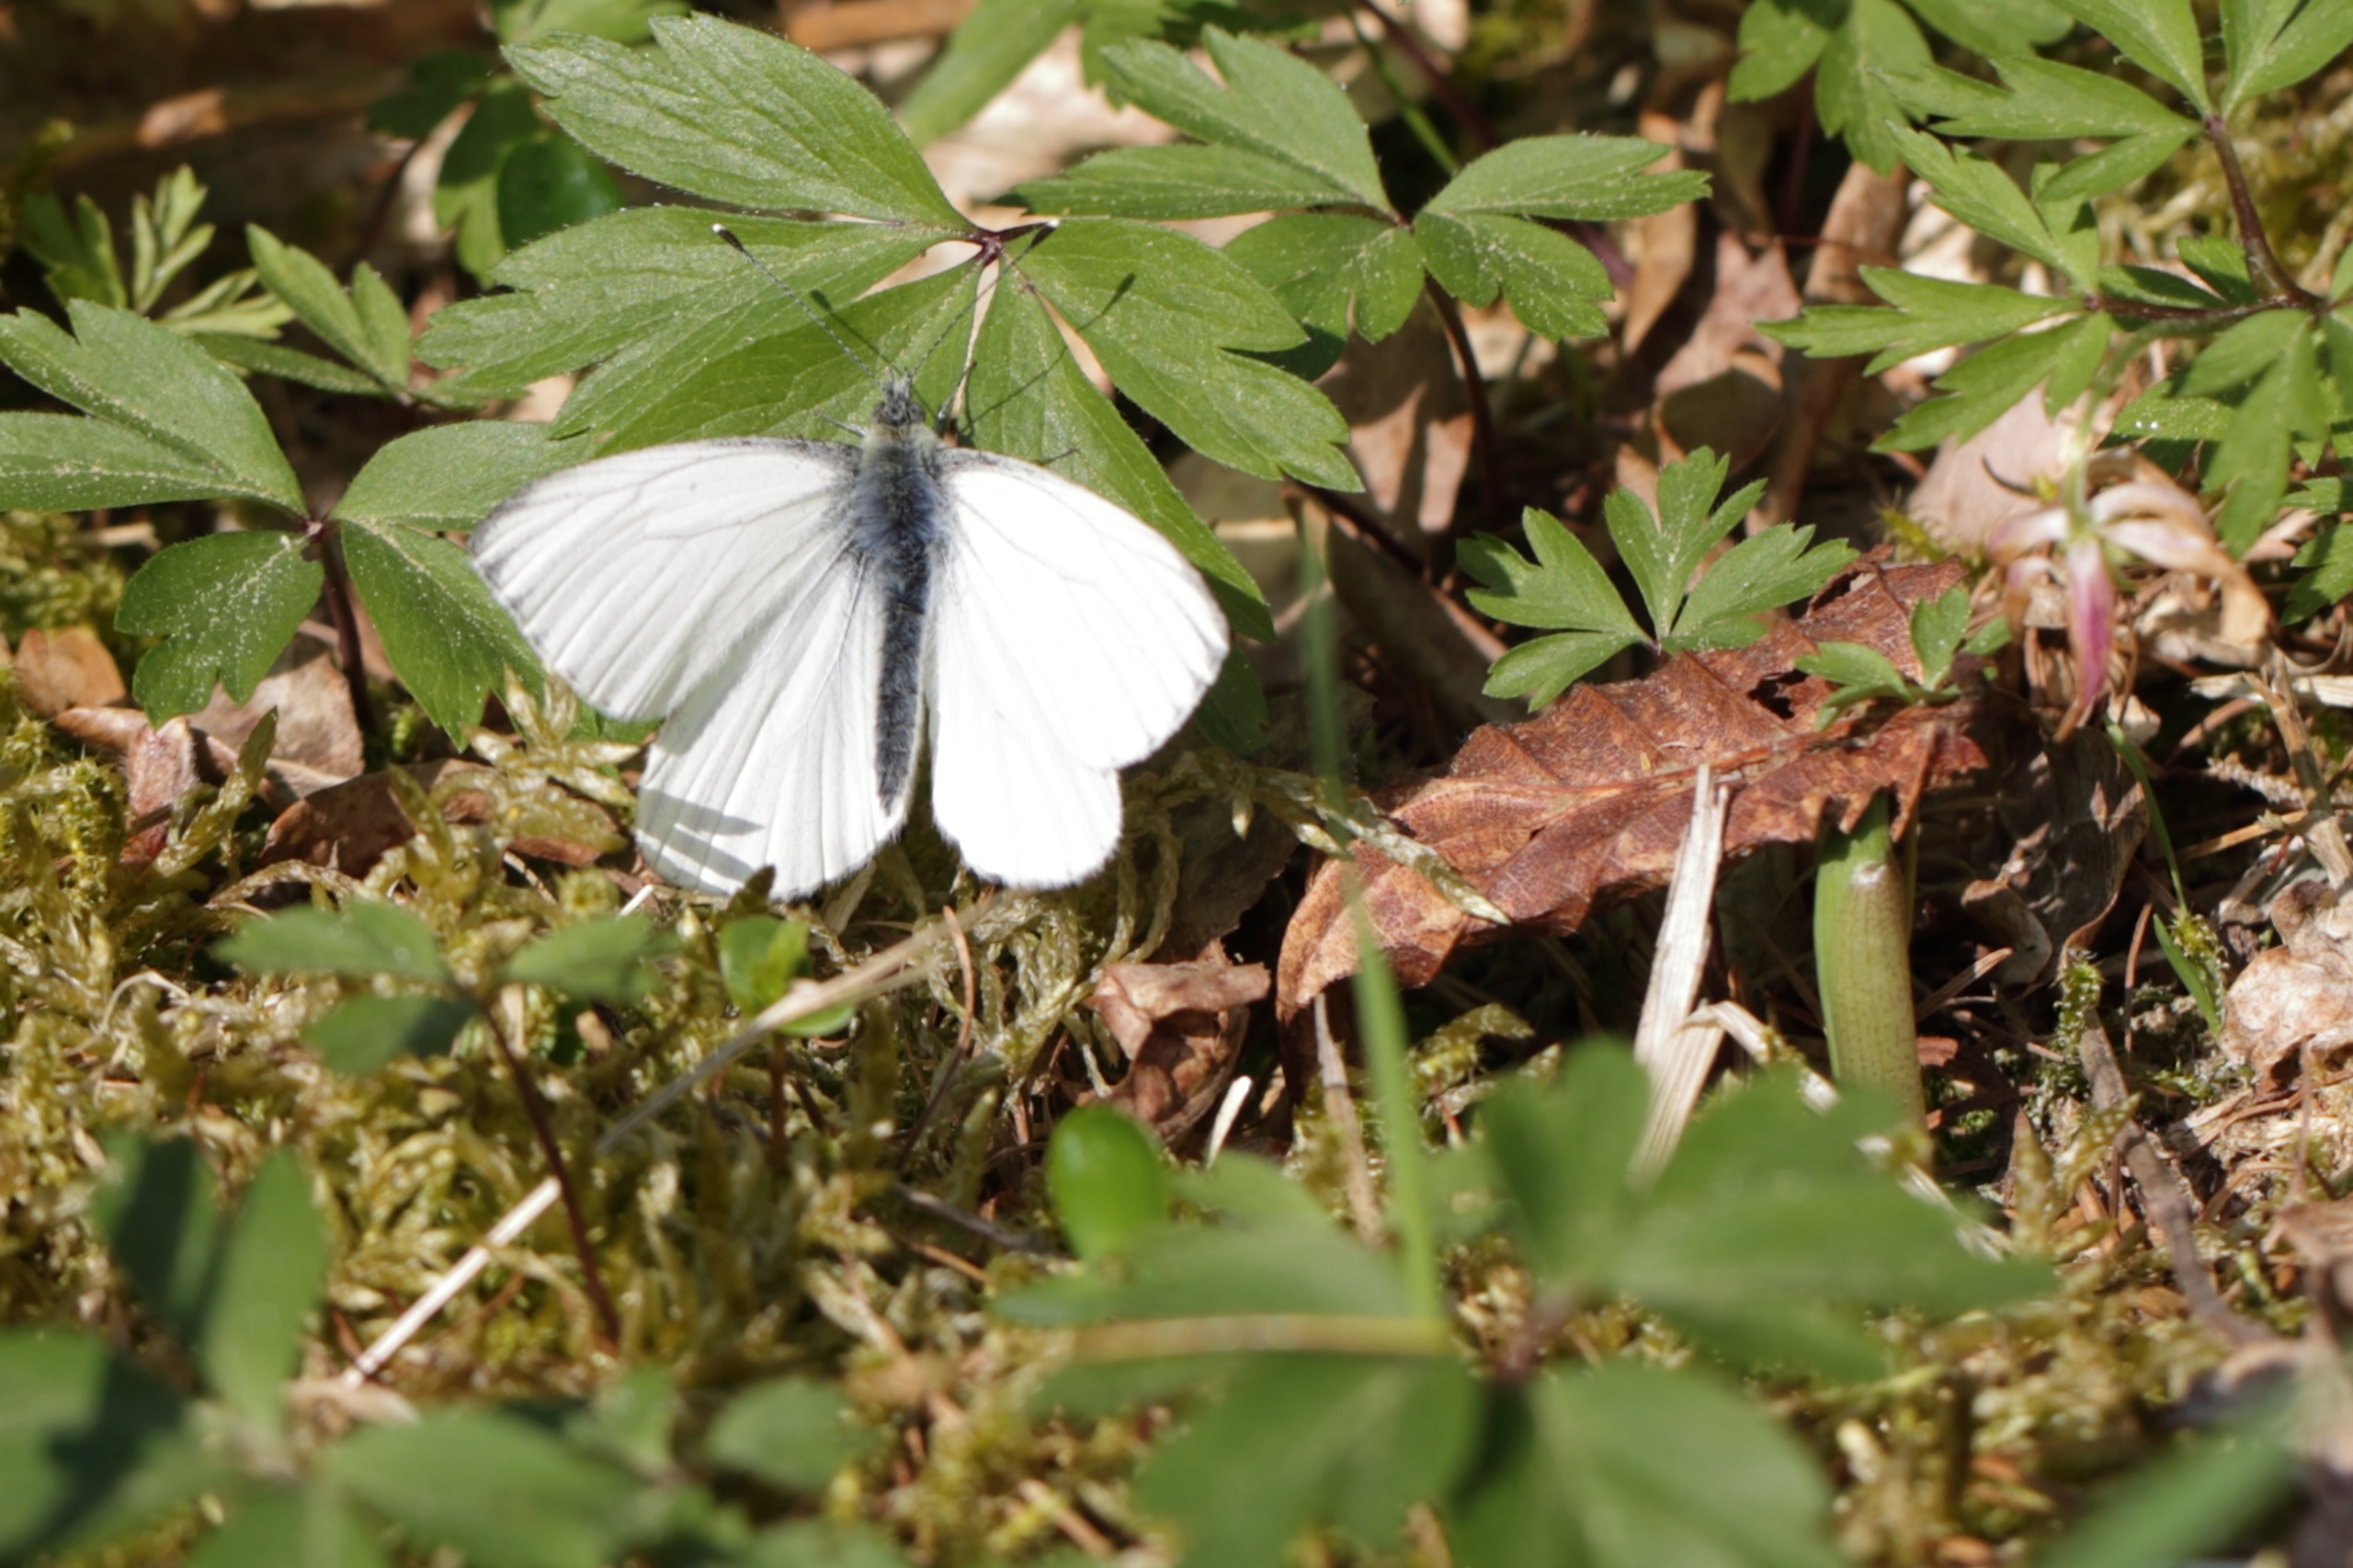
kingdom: Animalia
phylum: Arthropoda
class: Insecta
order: Lepidoptera
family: Pieridae
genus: Pieris
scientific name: Pieris napi
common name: Grønåret kålsommerfugl
